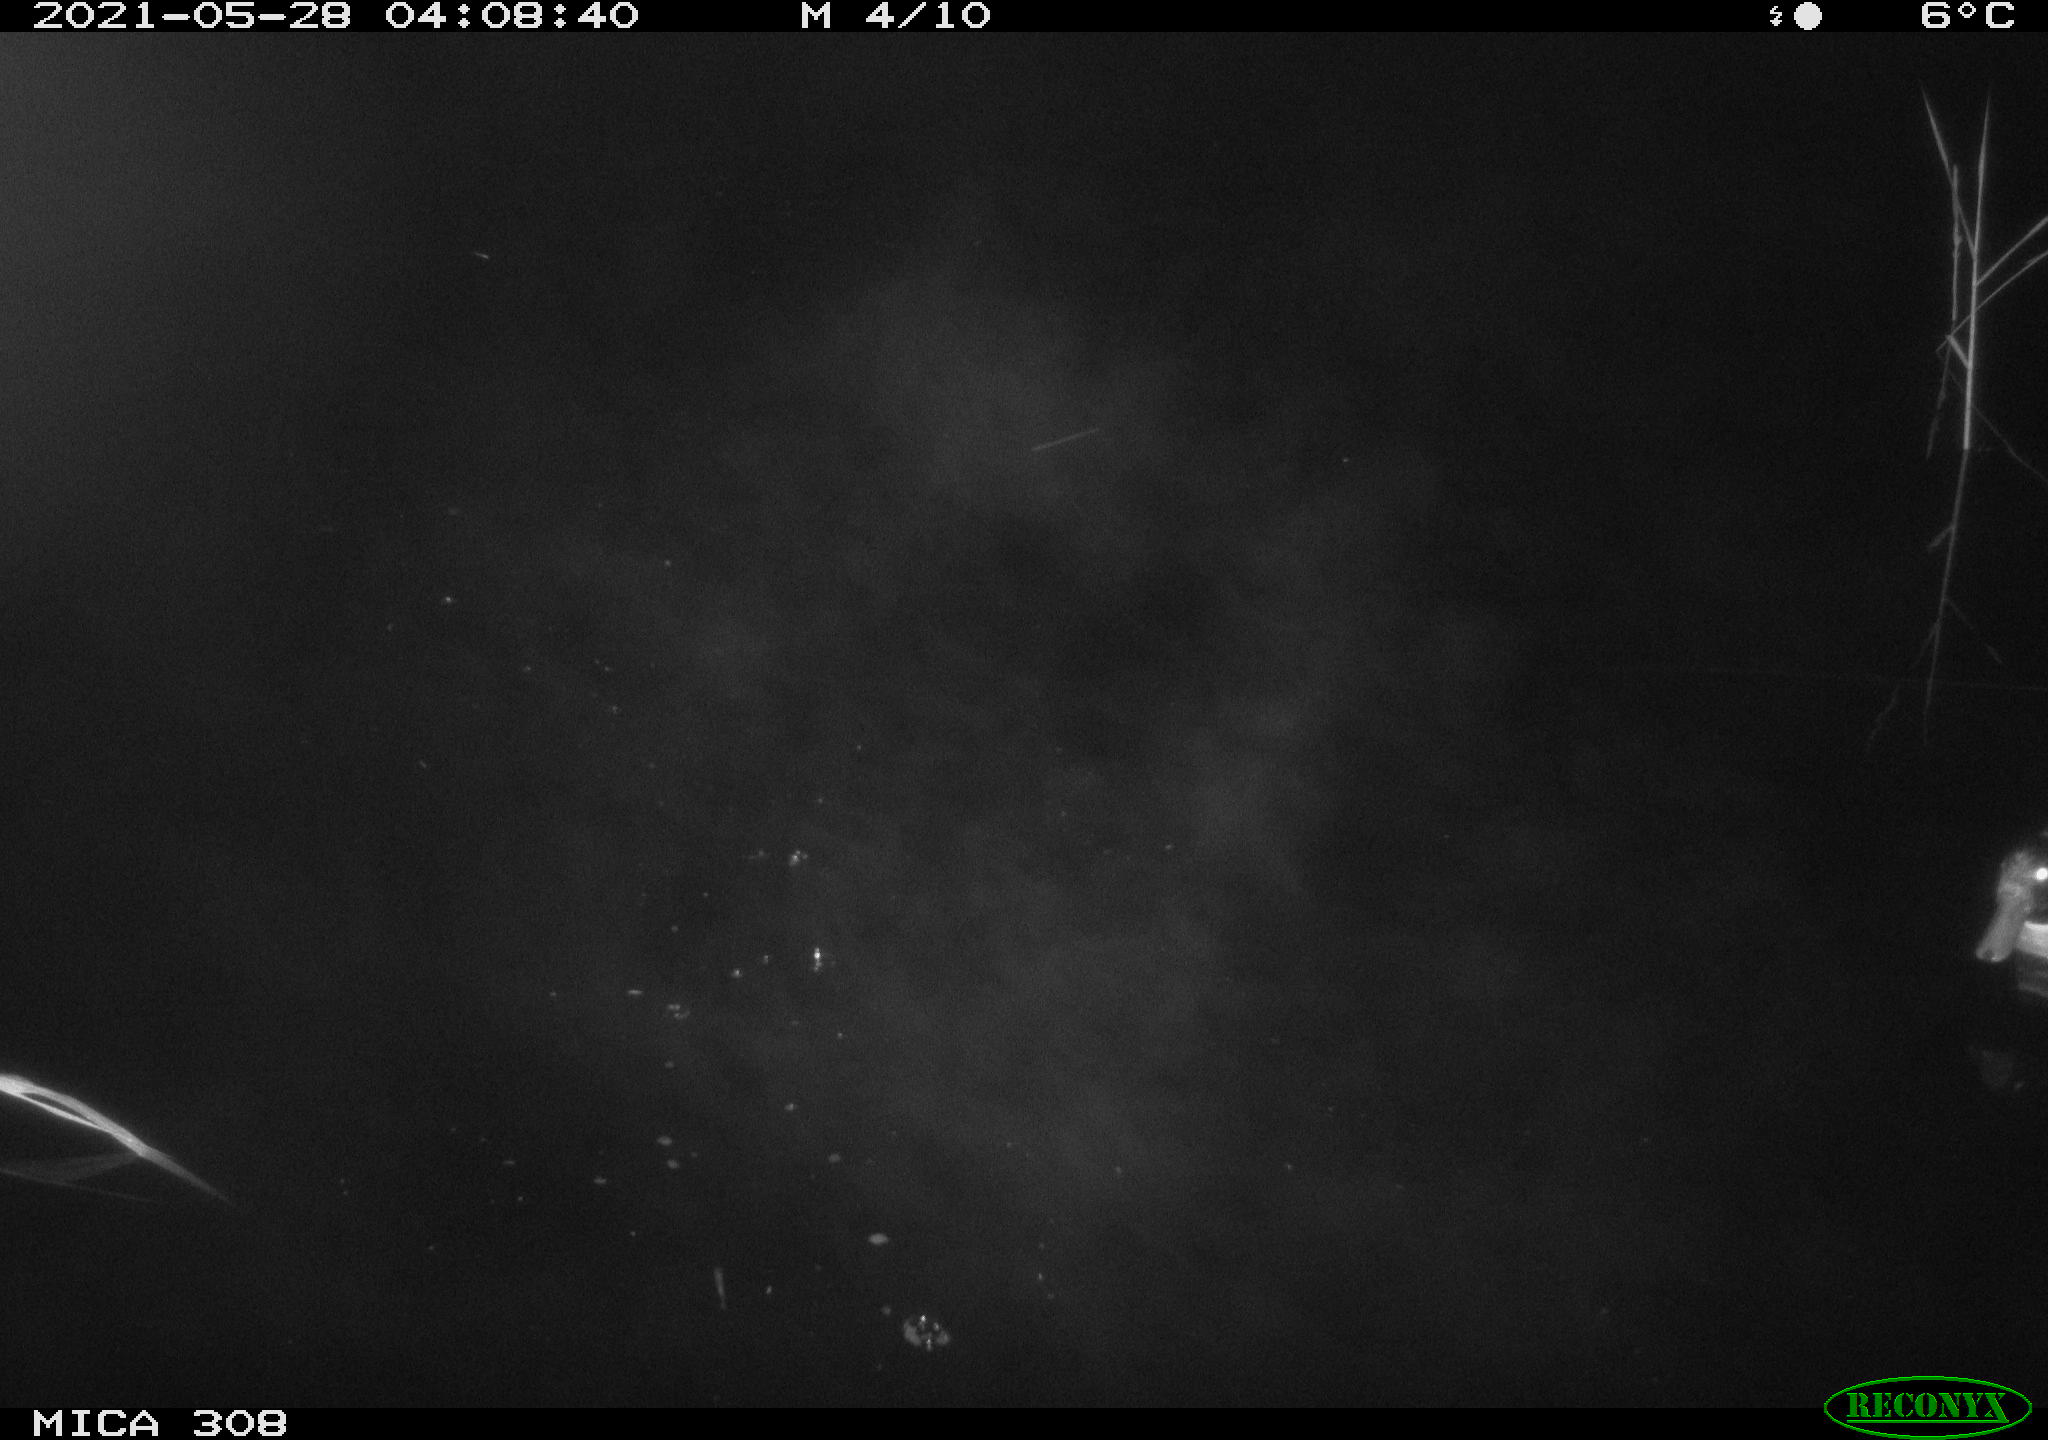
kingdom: Animalia
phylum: Chordata
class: Aves
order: Anseriformes
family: Anatidae
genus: Anas
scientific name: Anas platyrhynchos
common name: Mallard
